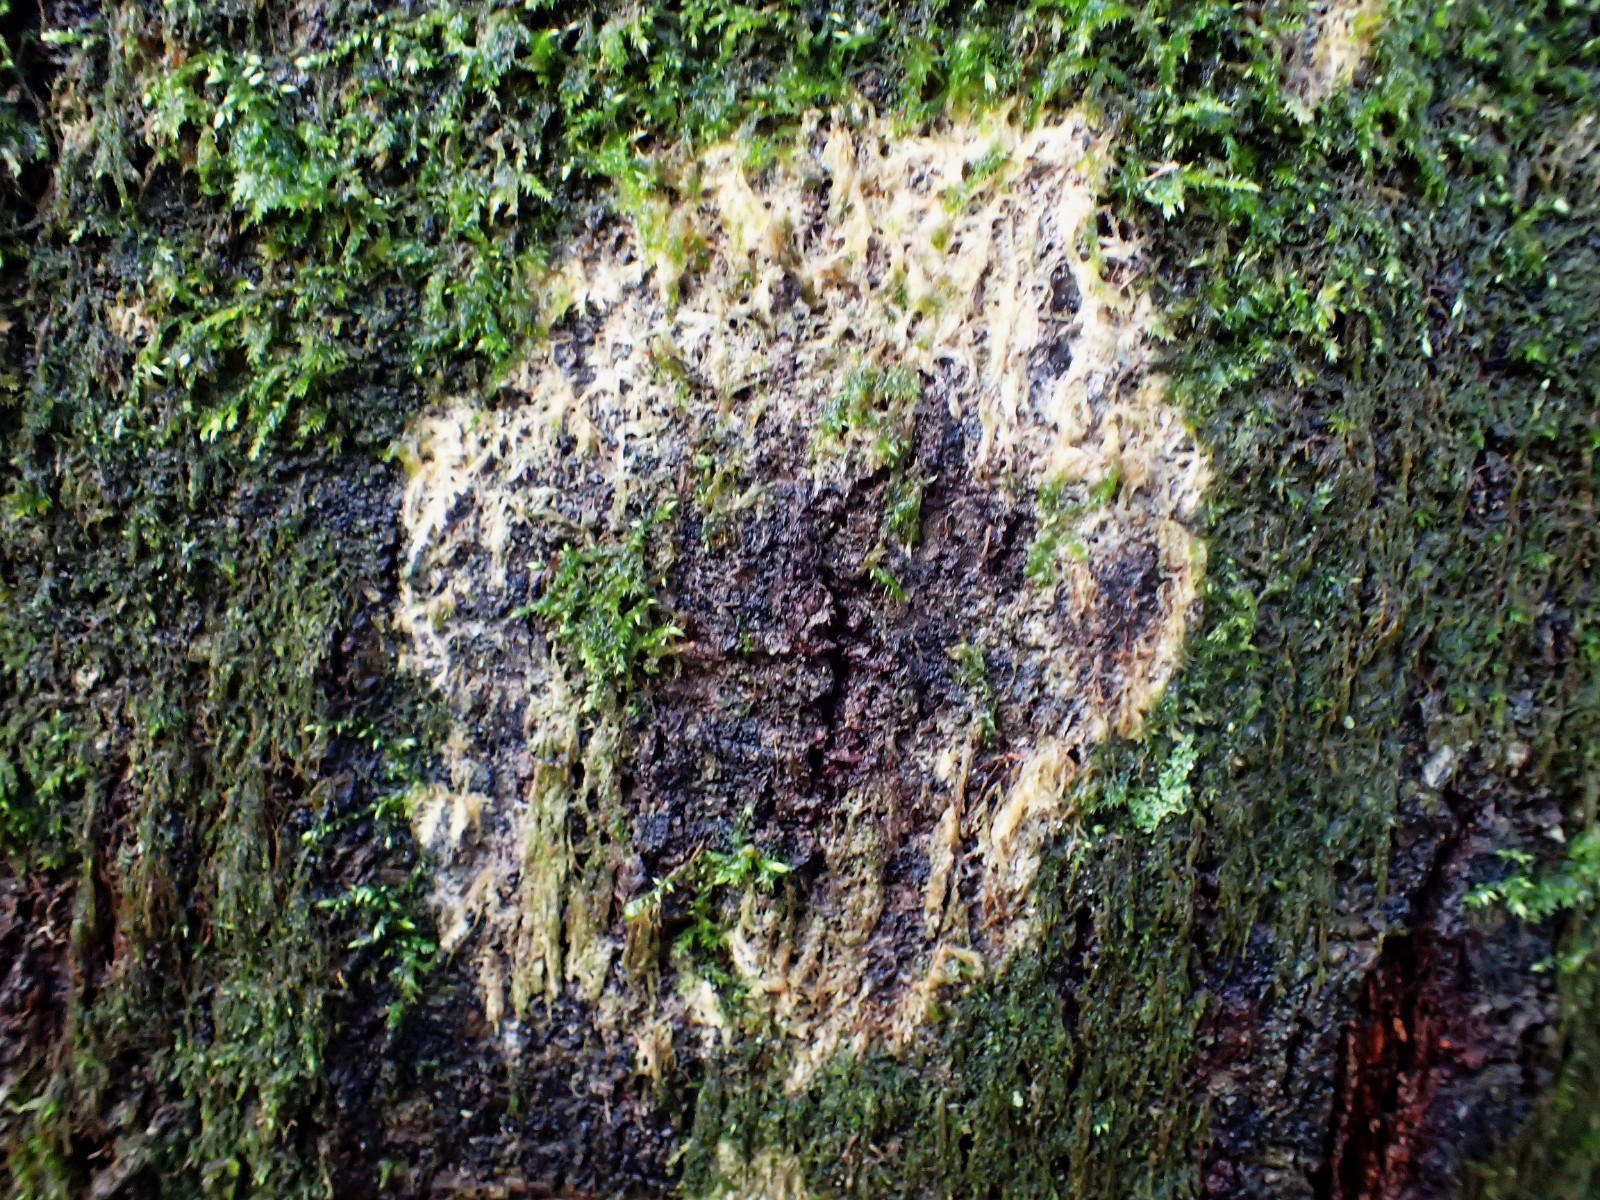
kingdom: Fungi
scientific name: Fungi
